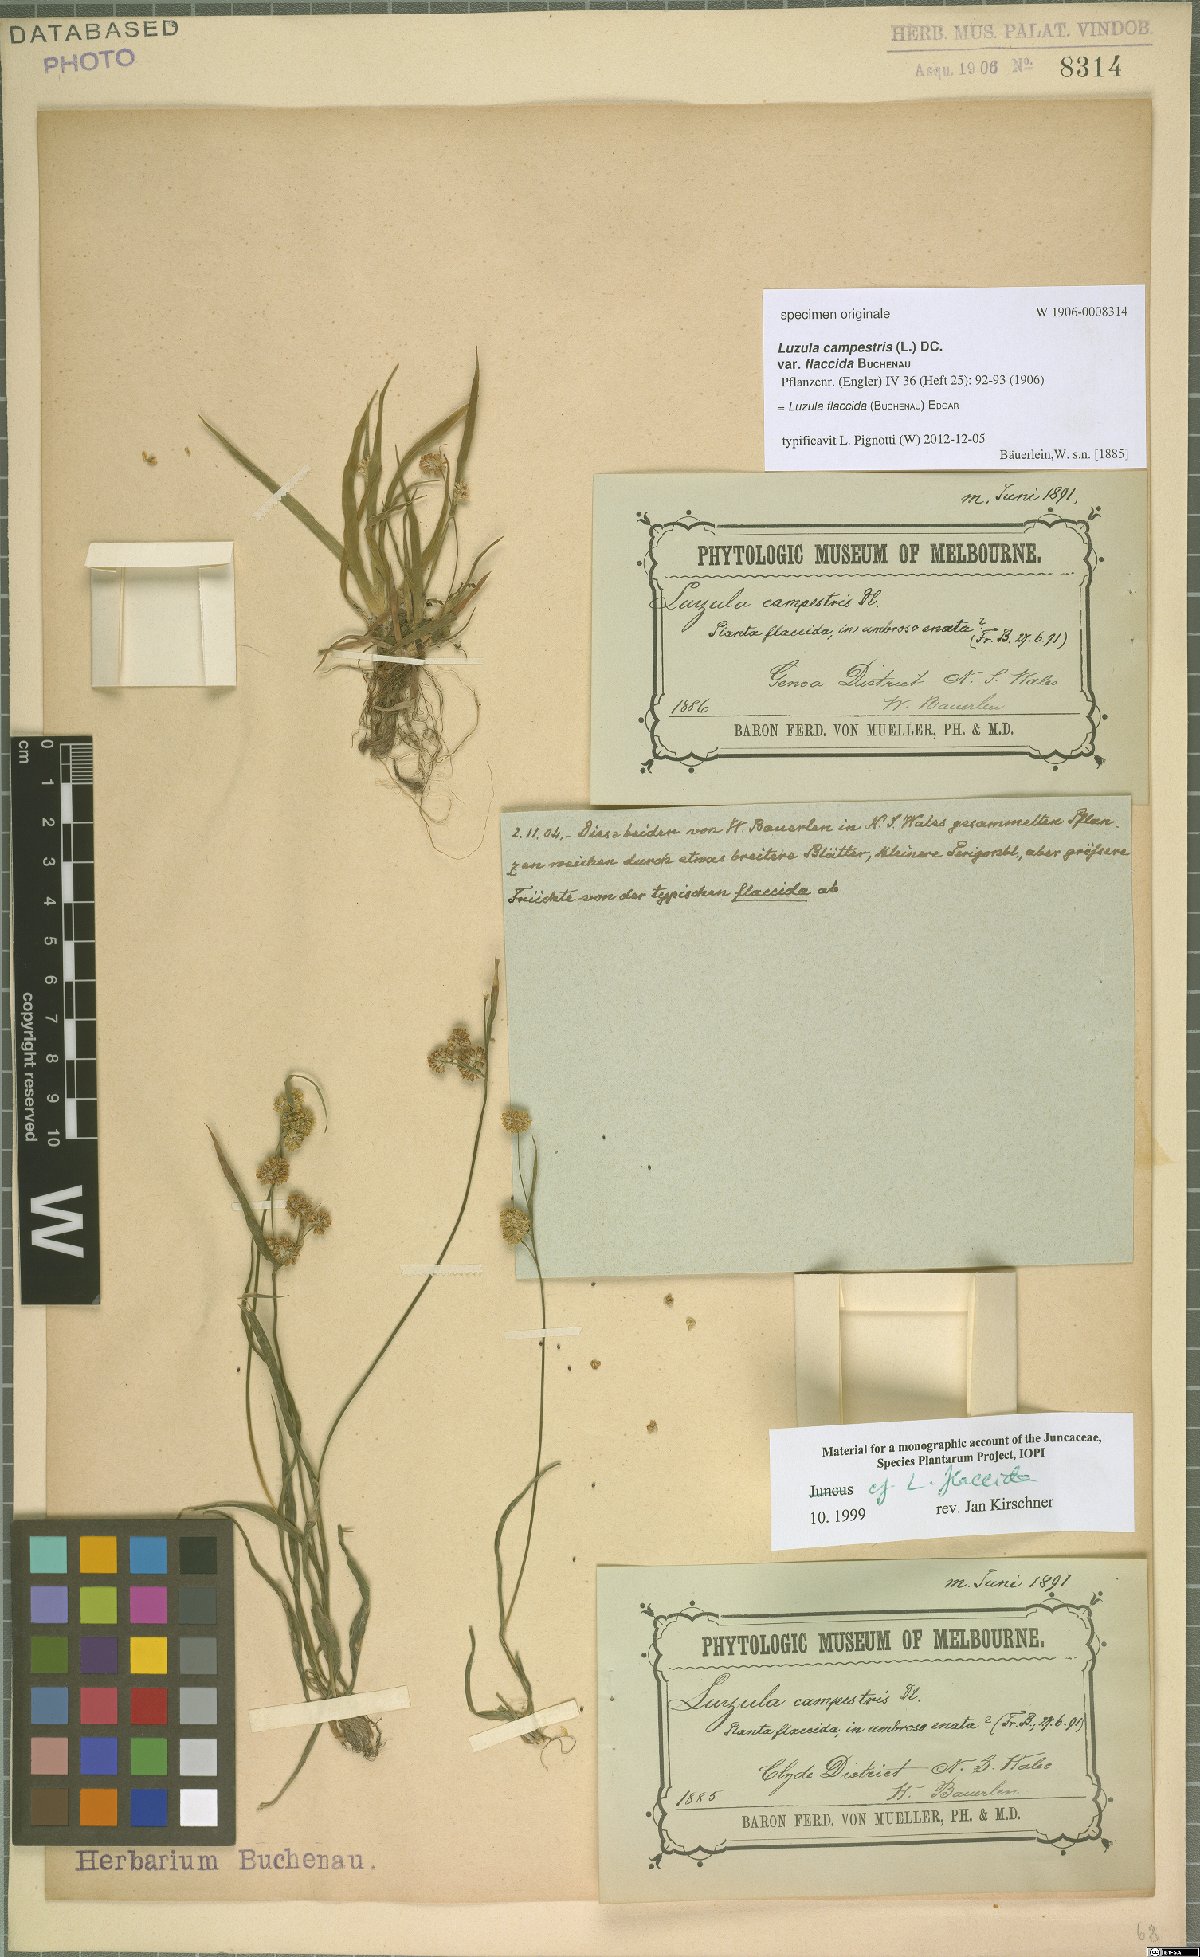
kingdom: Plantae
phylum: Tracheophyta
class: Liliopsida
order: Poales
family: Juncaceae
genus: Luzula
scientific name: Luzula flaccida
